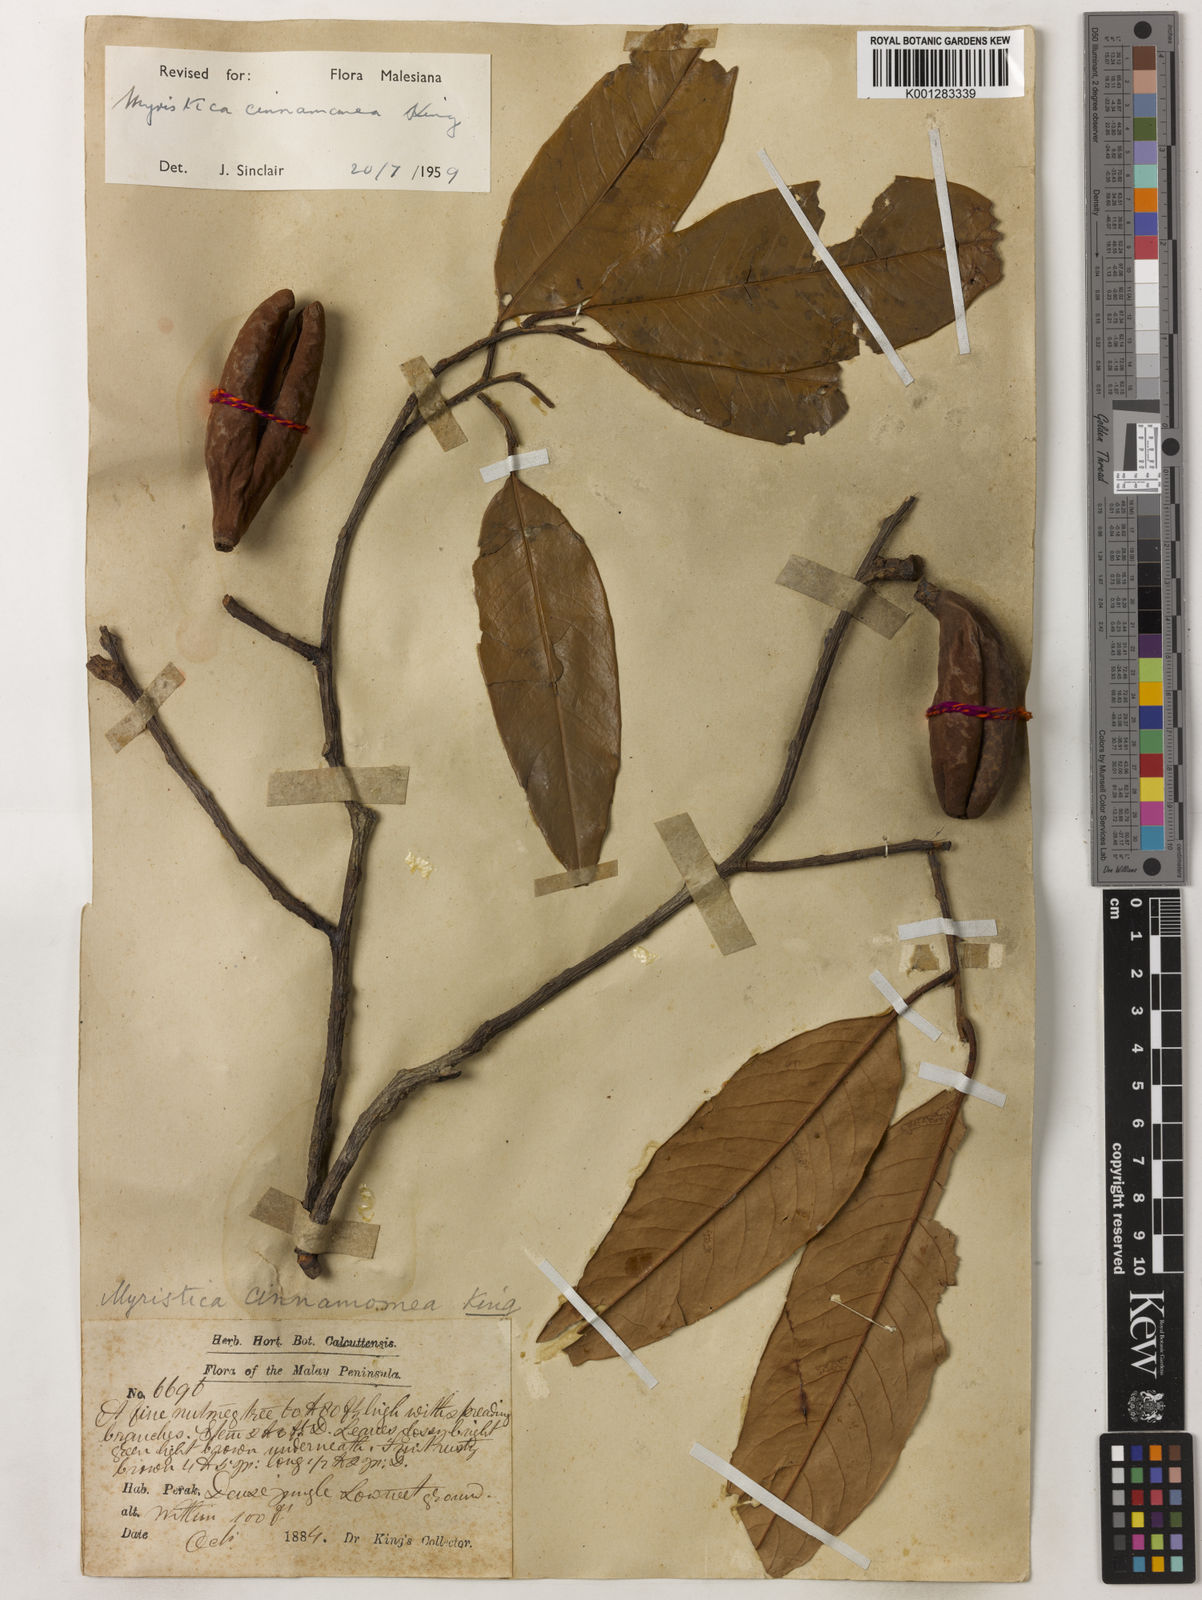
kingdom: Plantae
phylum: Tracheophyta
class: Magnoliopsida
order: Magnoliales
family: Myristicaceae
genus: Myristica
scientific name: Myristica cinnamomea
